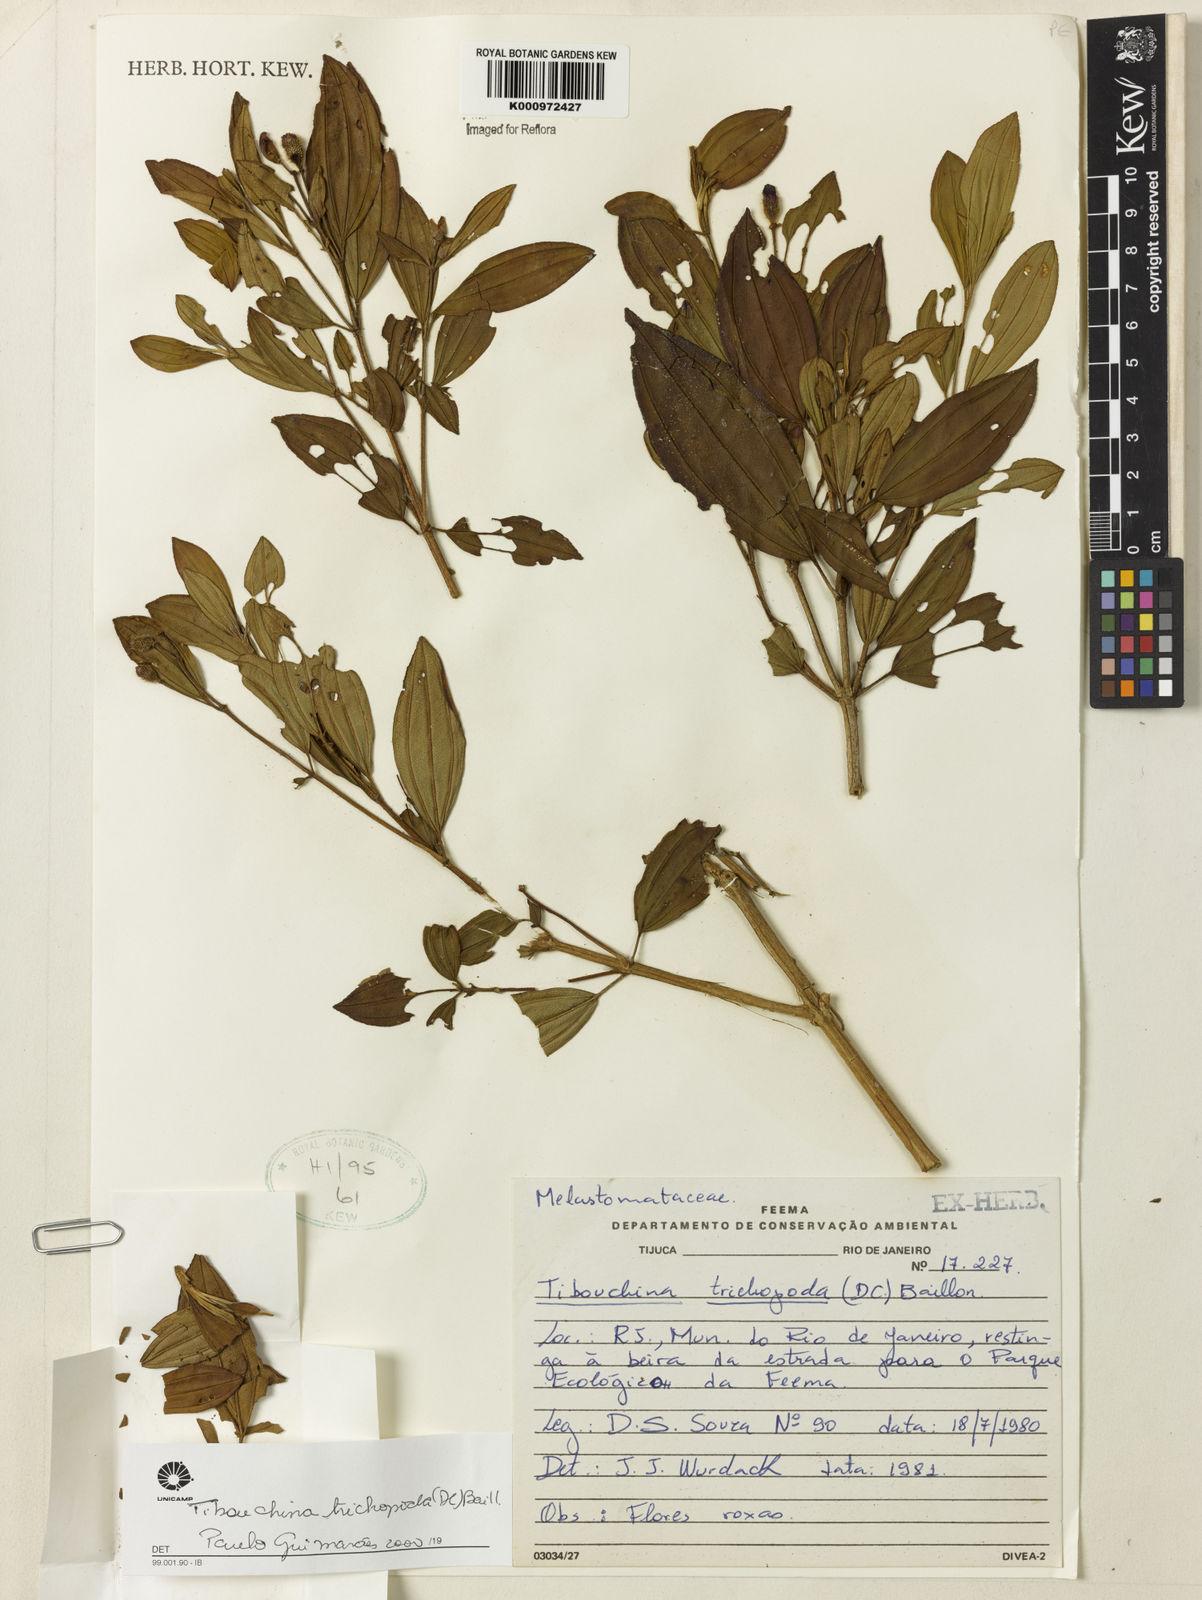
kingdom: Plantae
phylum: Tracheophyta
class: Magnoliopsida
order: Myrtales
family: Melastomataceae
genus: Pleroma
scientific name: Pleroma trichopodum
